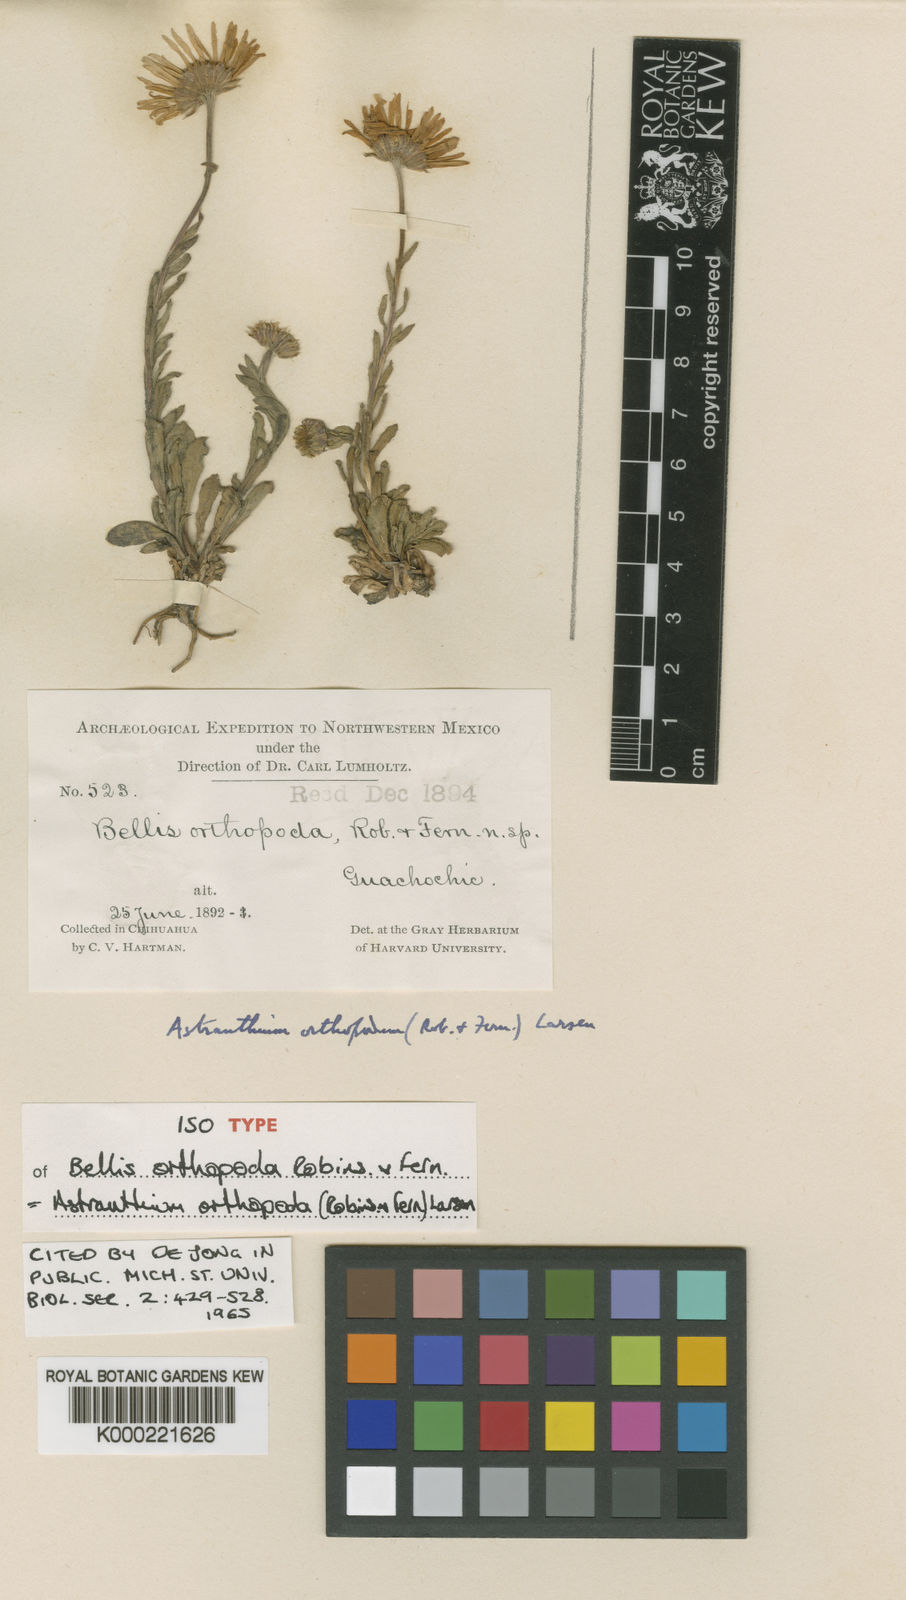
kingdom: Plantae
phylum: Tracheophyta
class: Magnoliopsida
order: Asterales
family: Asteraceae
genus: Astranthium
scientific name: Astranthium
